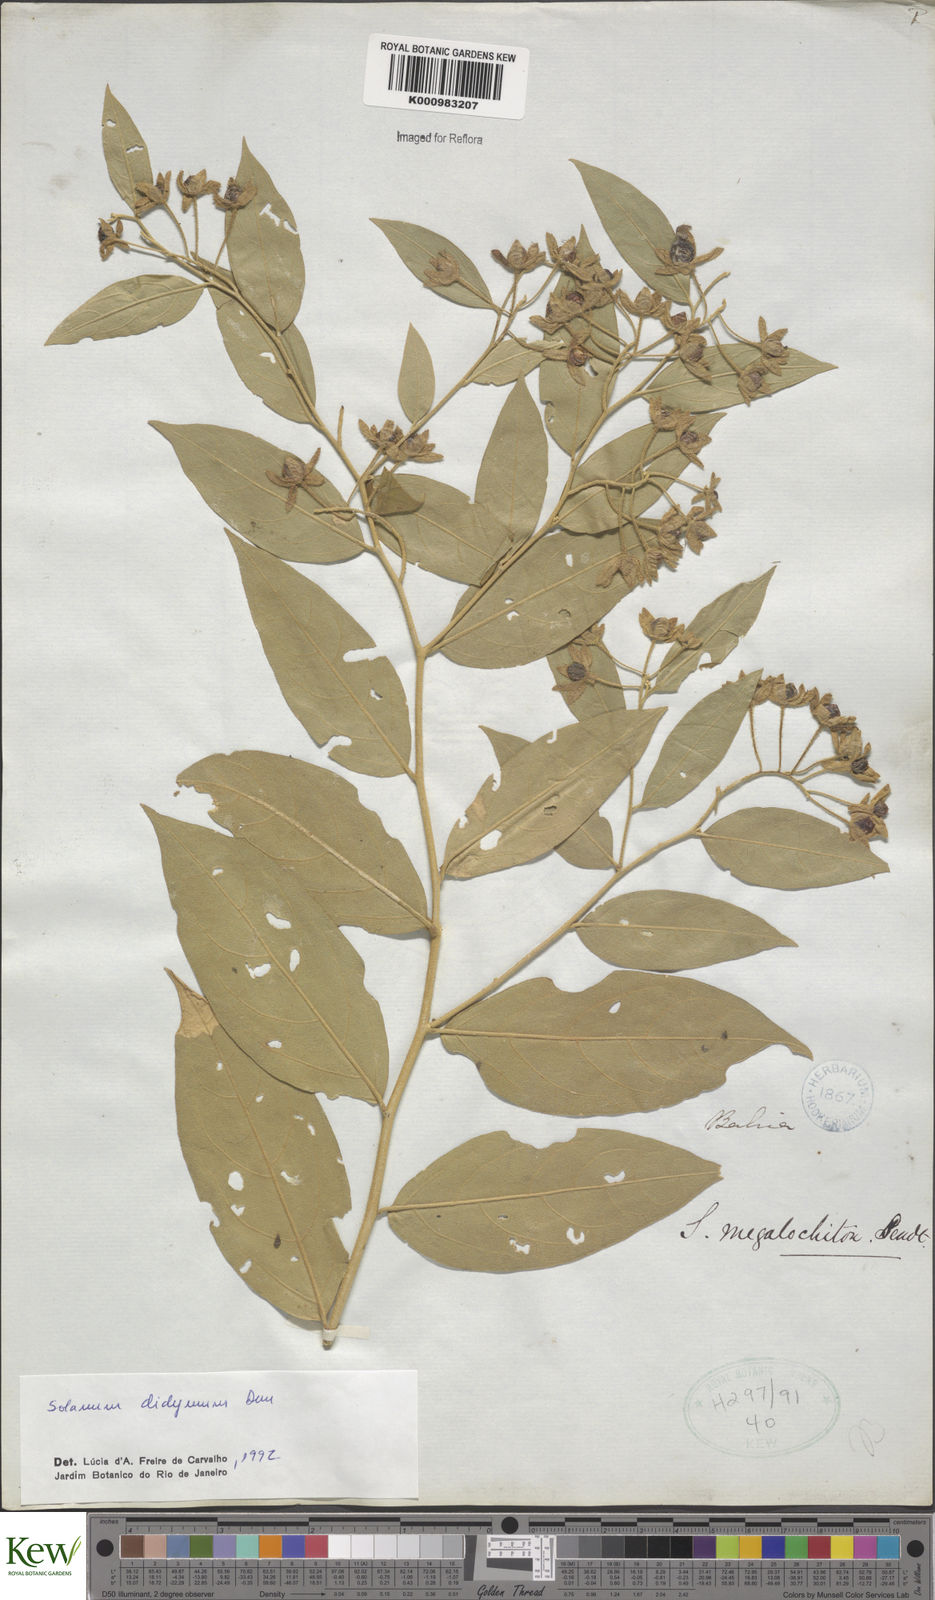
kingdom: Plantae
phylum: Tracheophyta
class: Magnoliopsida
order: Solanales
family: Solanaceae
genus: Solanum
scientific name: Solanum
